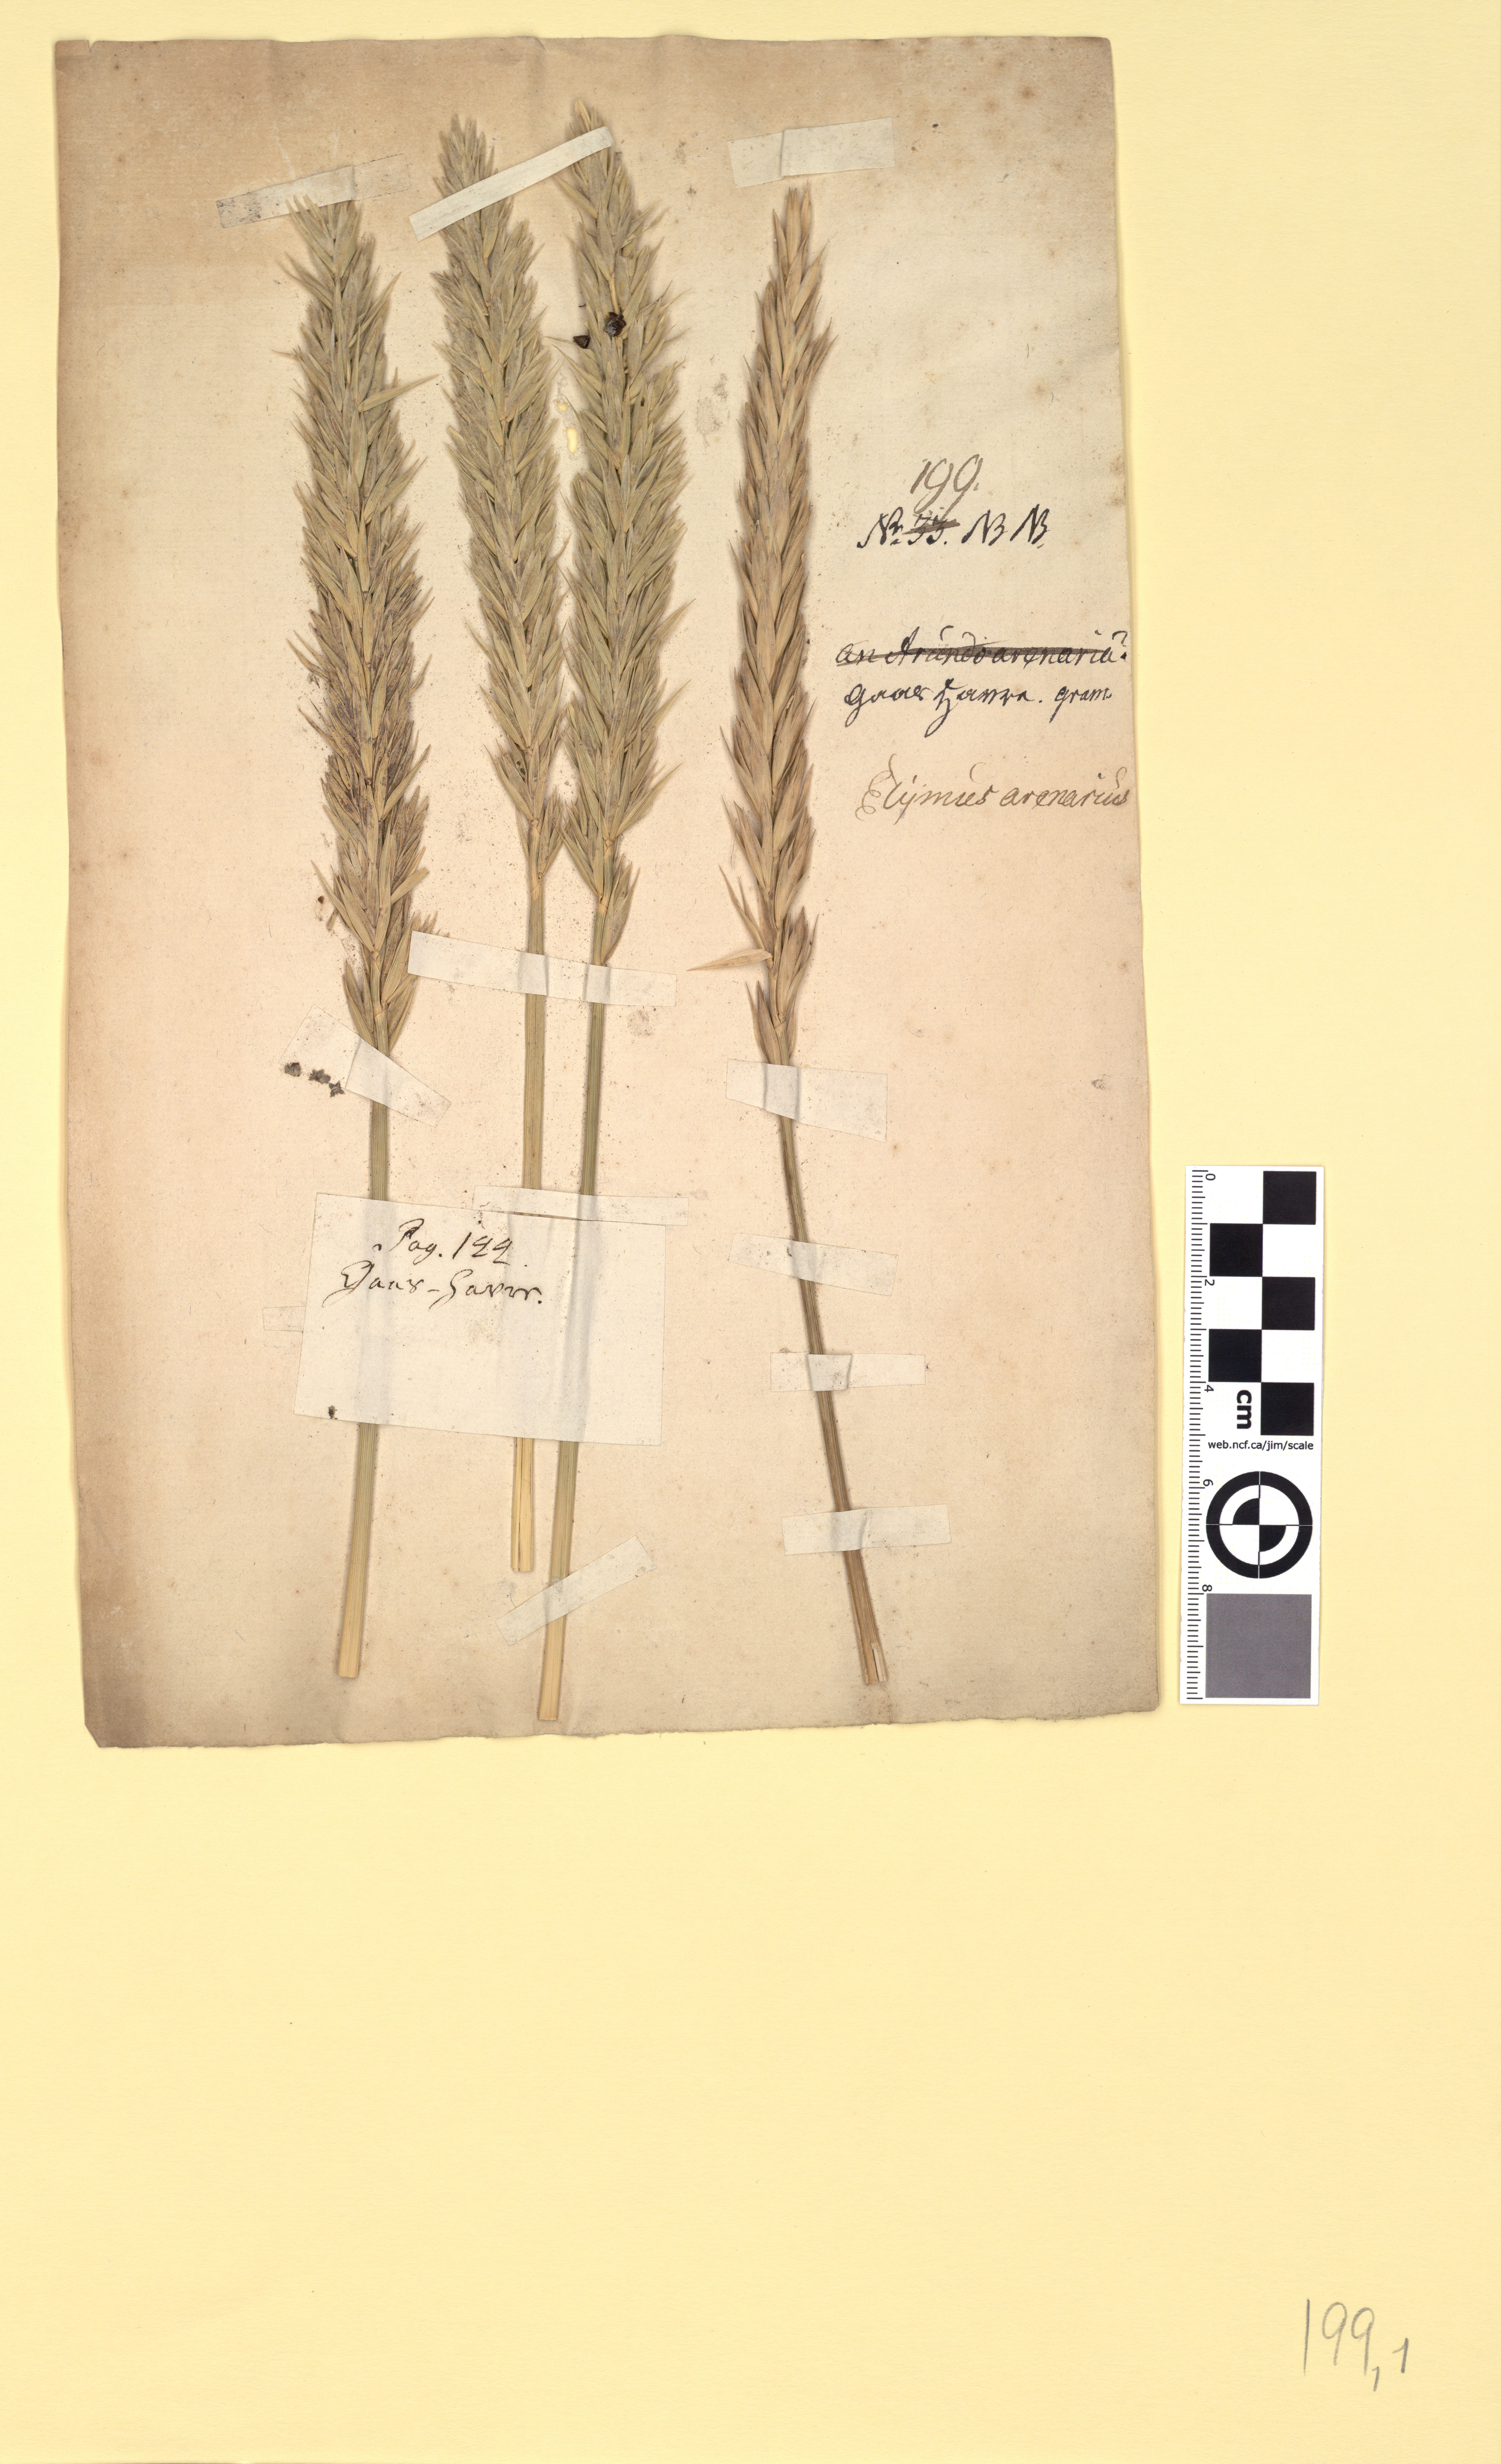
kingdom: Plantae
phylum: Tracheophyta
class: Liliopsida
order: Poales
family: Poaceae
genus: Leymus
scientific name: Leymus arenarius
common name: Lyme-grass
